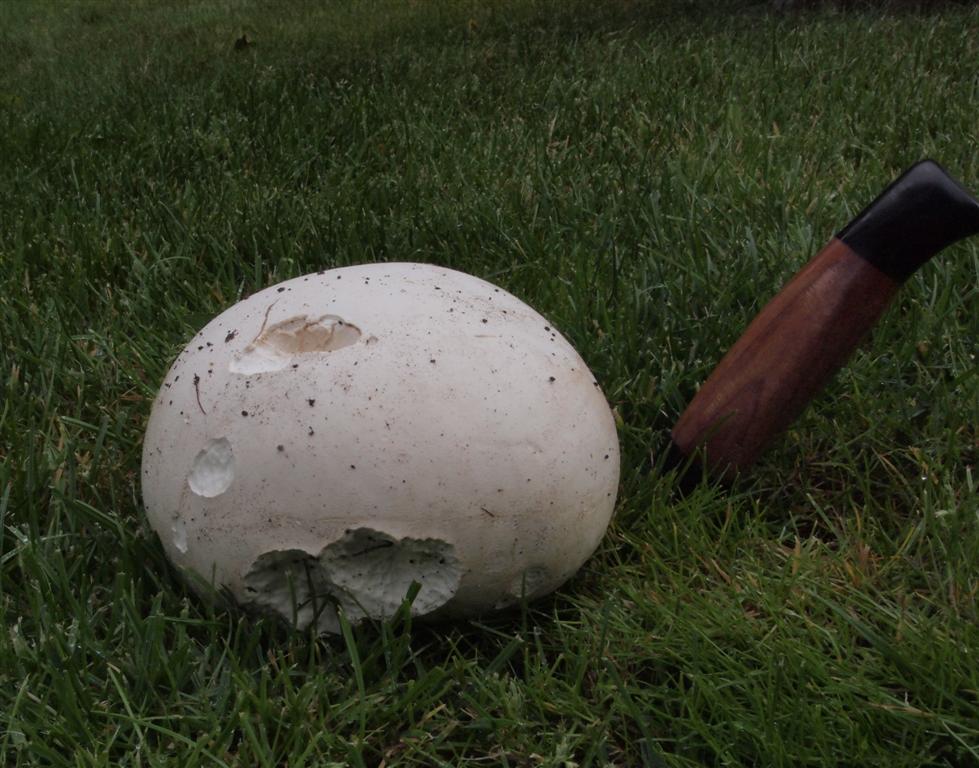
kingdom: Fungi
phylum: Basidiomycota
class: Agaricomycetes
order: Agaricales
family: Lycoperdaceae
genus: Calvatia
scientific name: Calvatia gigantea
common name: kæmpestøvbold
